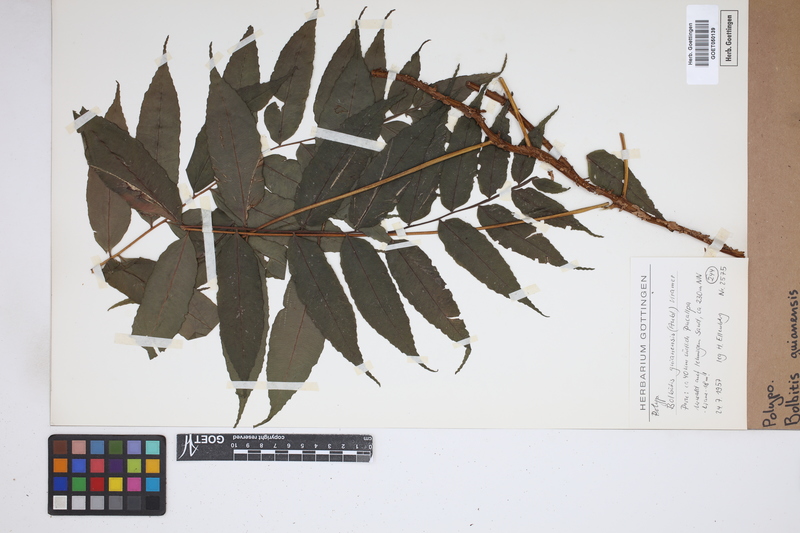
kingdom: Plantae
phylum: Tracheophyta
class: Polypodiopsida
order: Polypodiales
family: Dryopteridaceae
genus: Mickelia
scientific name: Mickelia guianensis
